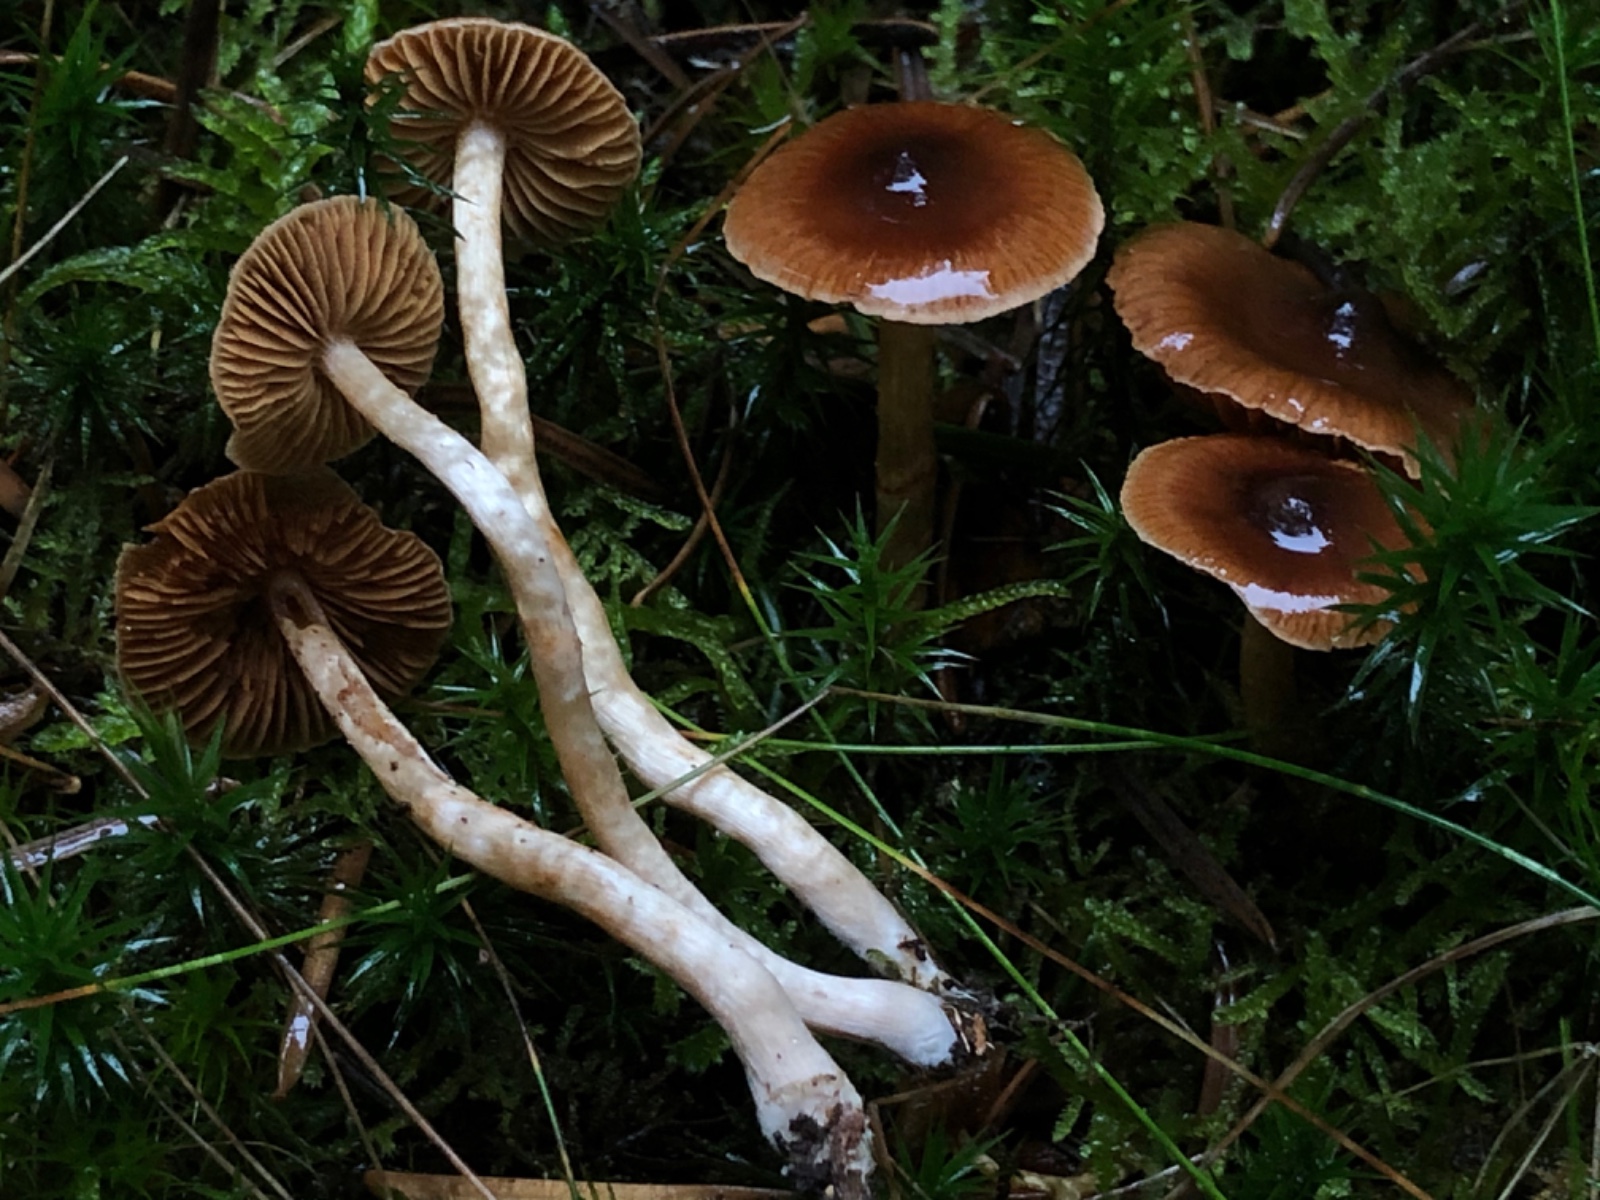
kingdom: Fungi
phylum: Basidiomycota
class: Agaricomycetes
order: Agaricales
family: Cortinariaceae
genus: Cortinarius
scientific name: Cortinarius
